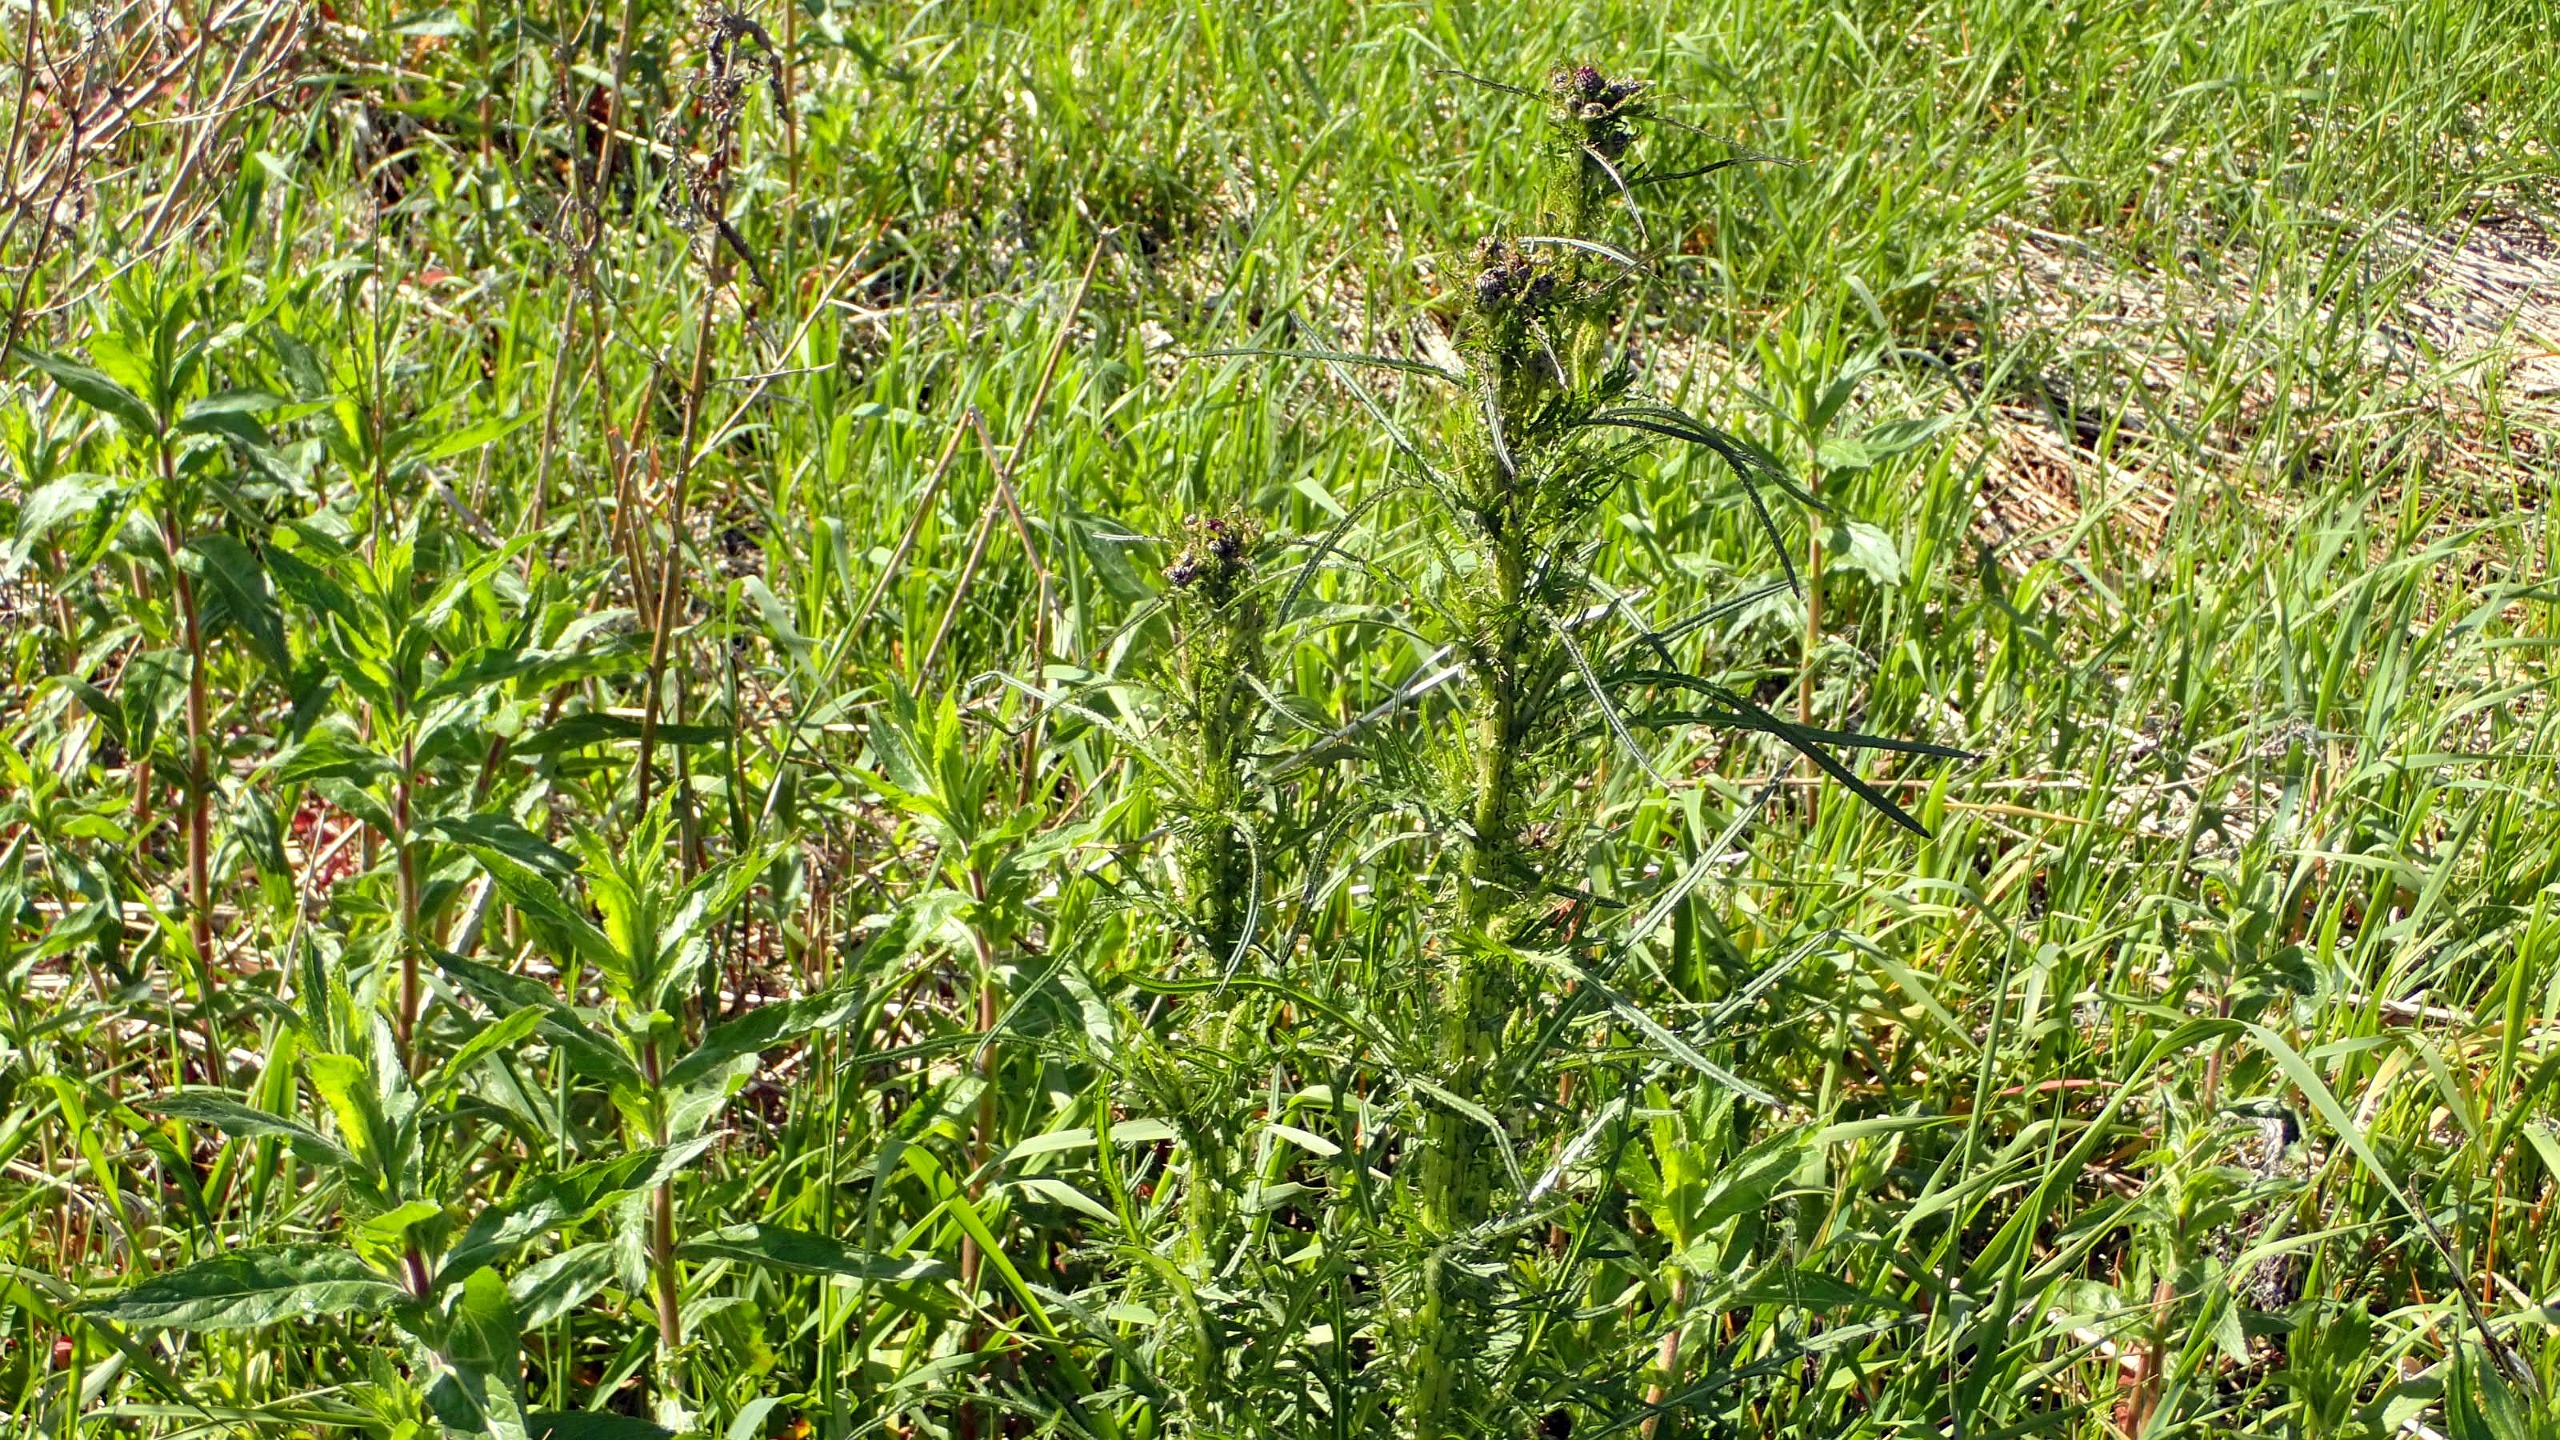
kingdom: Plantae
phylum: Tracheophyta
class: Magnoliopsida
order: Asterales
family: Asteraceae
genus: Cirsium
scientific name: Cirsium palustre
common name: Kær-tidsel
